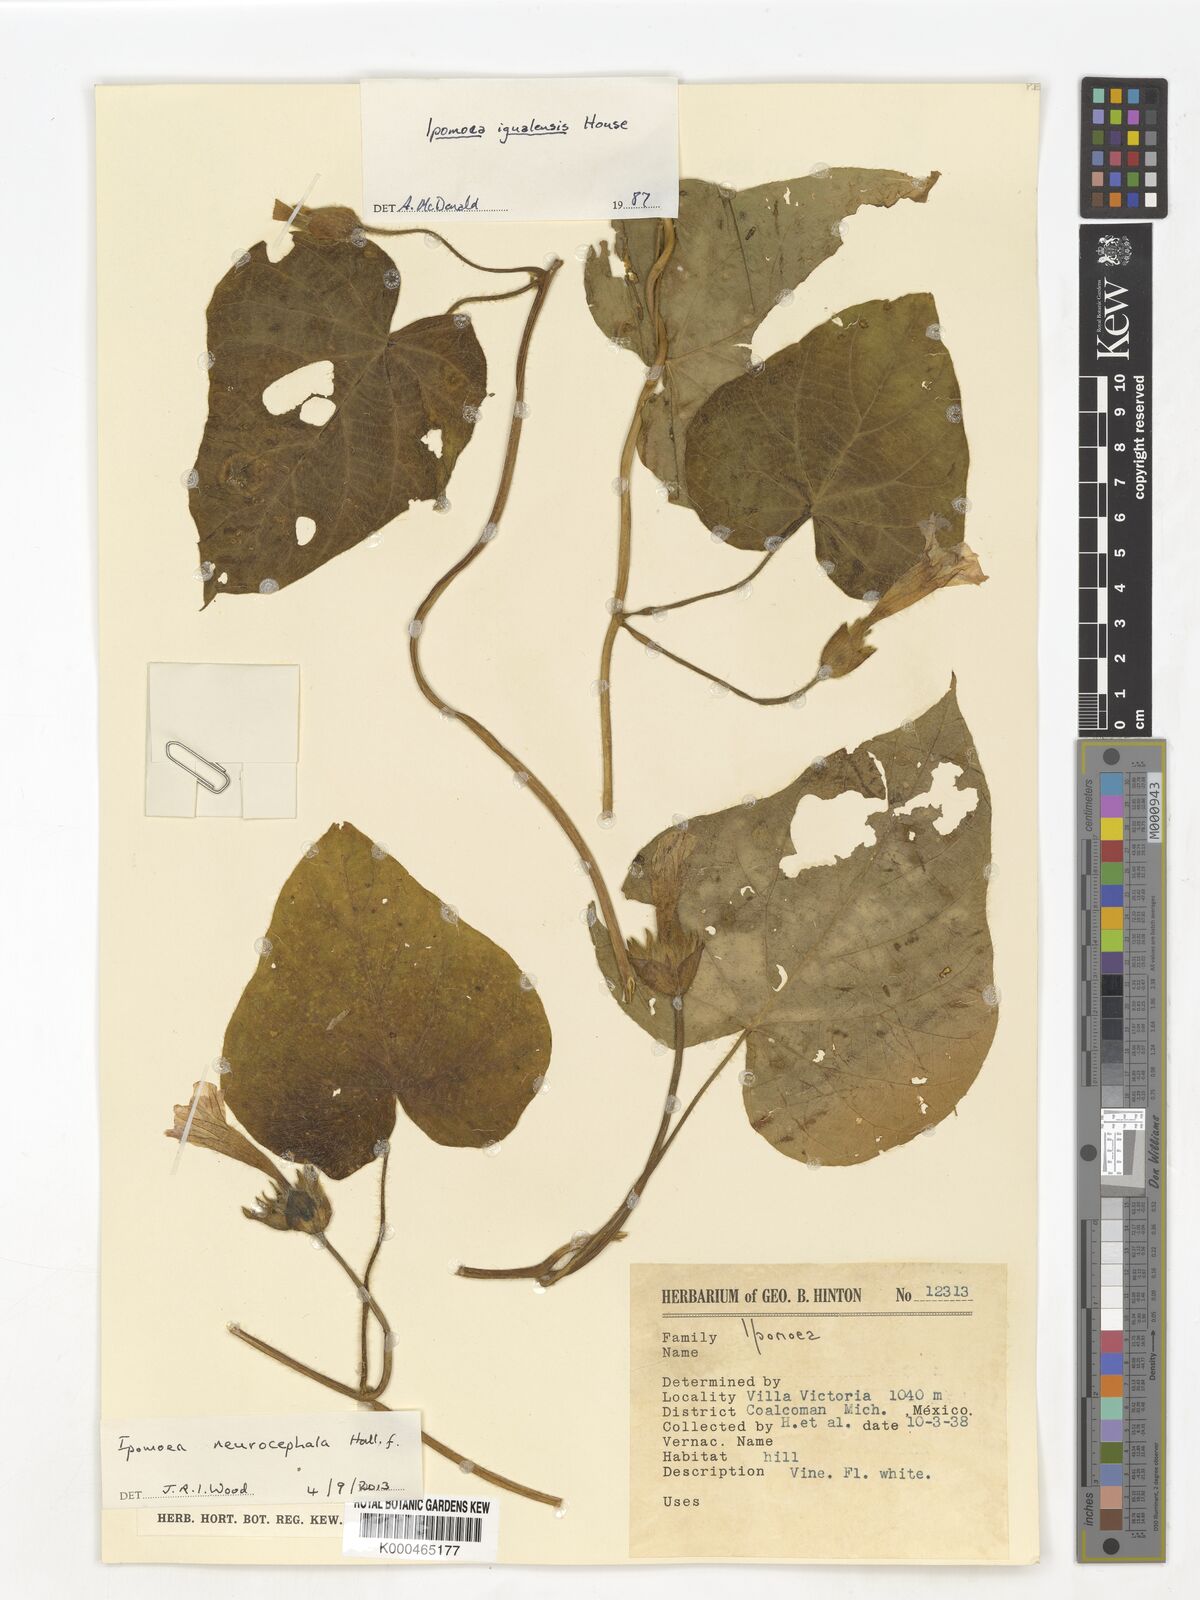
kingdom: Plantae
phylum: Tracheophyta
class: Magnoliopsida
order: Solanales
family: Convolvulaceae
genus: Ipomoea
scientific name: Ipomoea neurocephala
